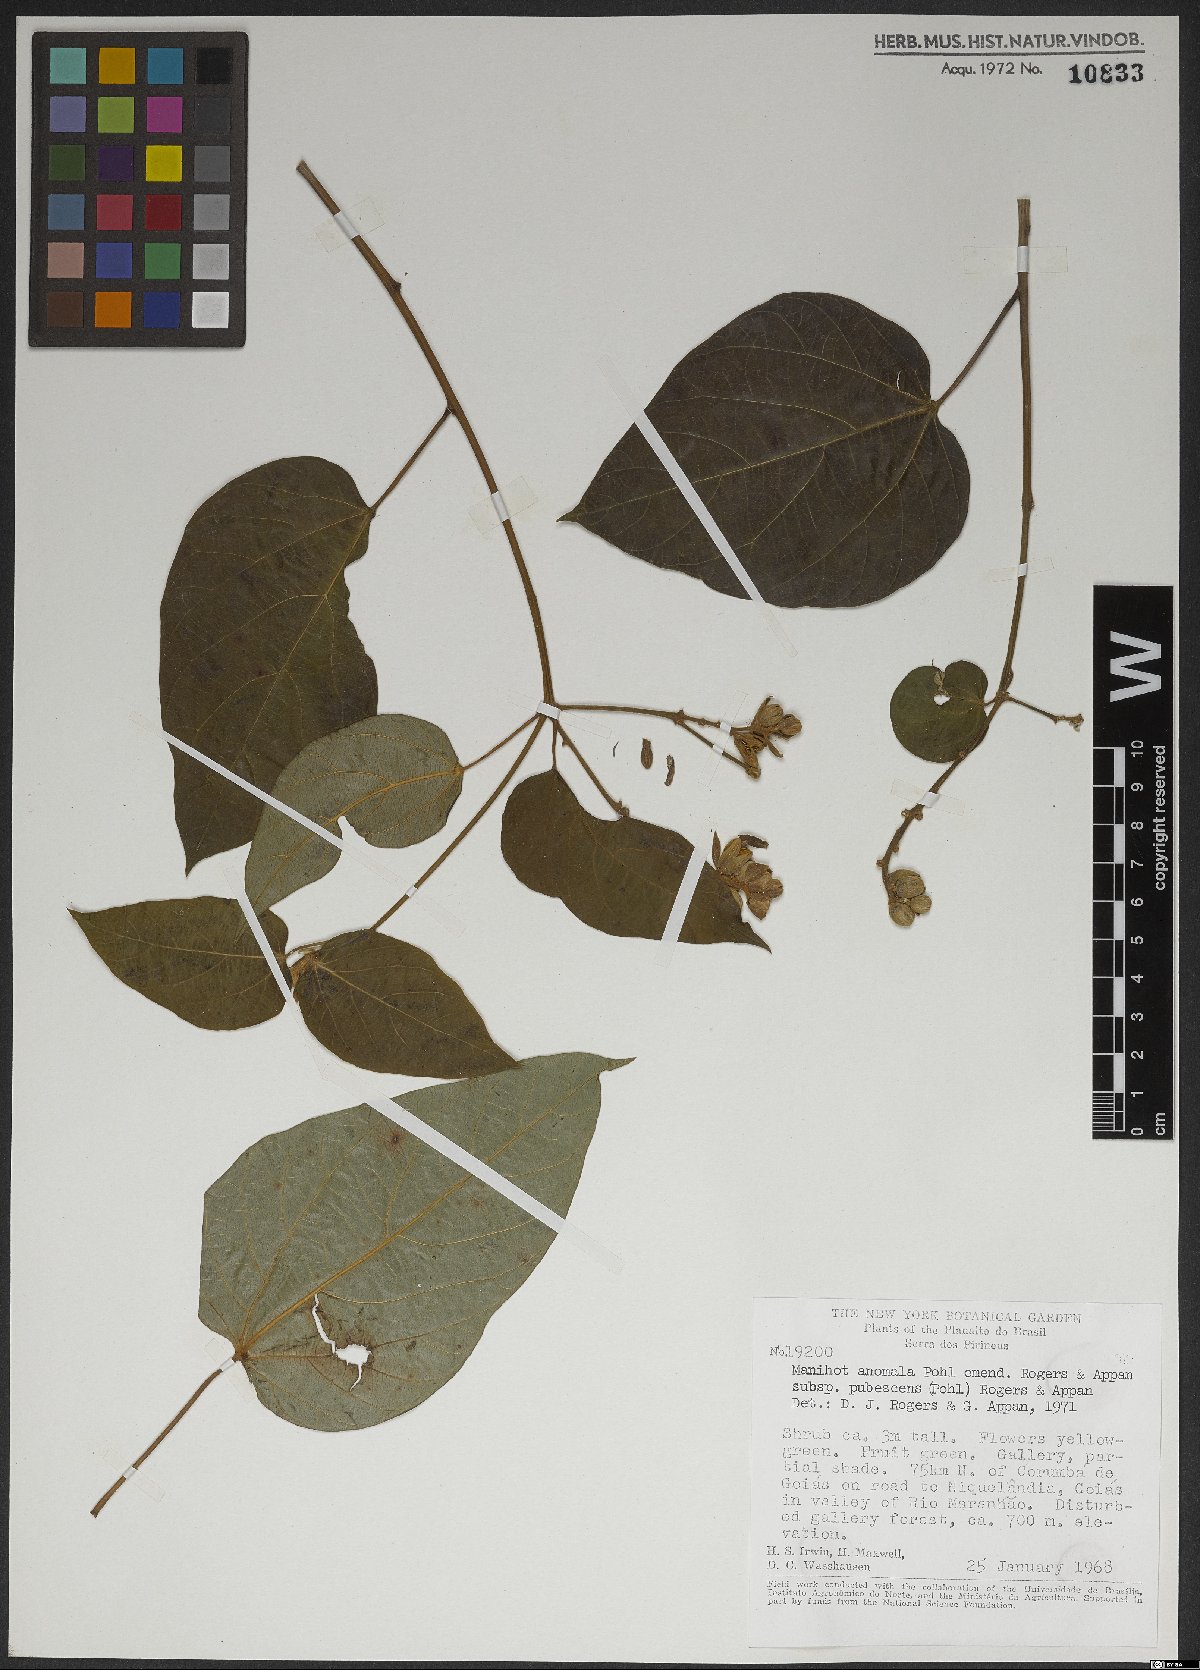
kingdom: Plantae
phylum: Tracheophyta
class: Magnoliopsida
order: Malpighiales
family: Euphorbiaceae
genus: Manihot
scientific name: Manihot anomala
